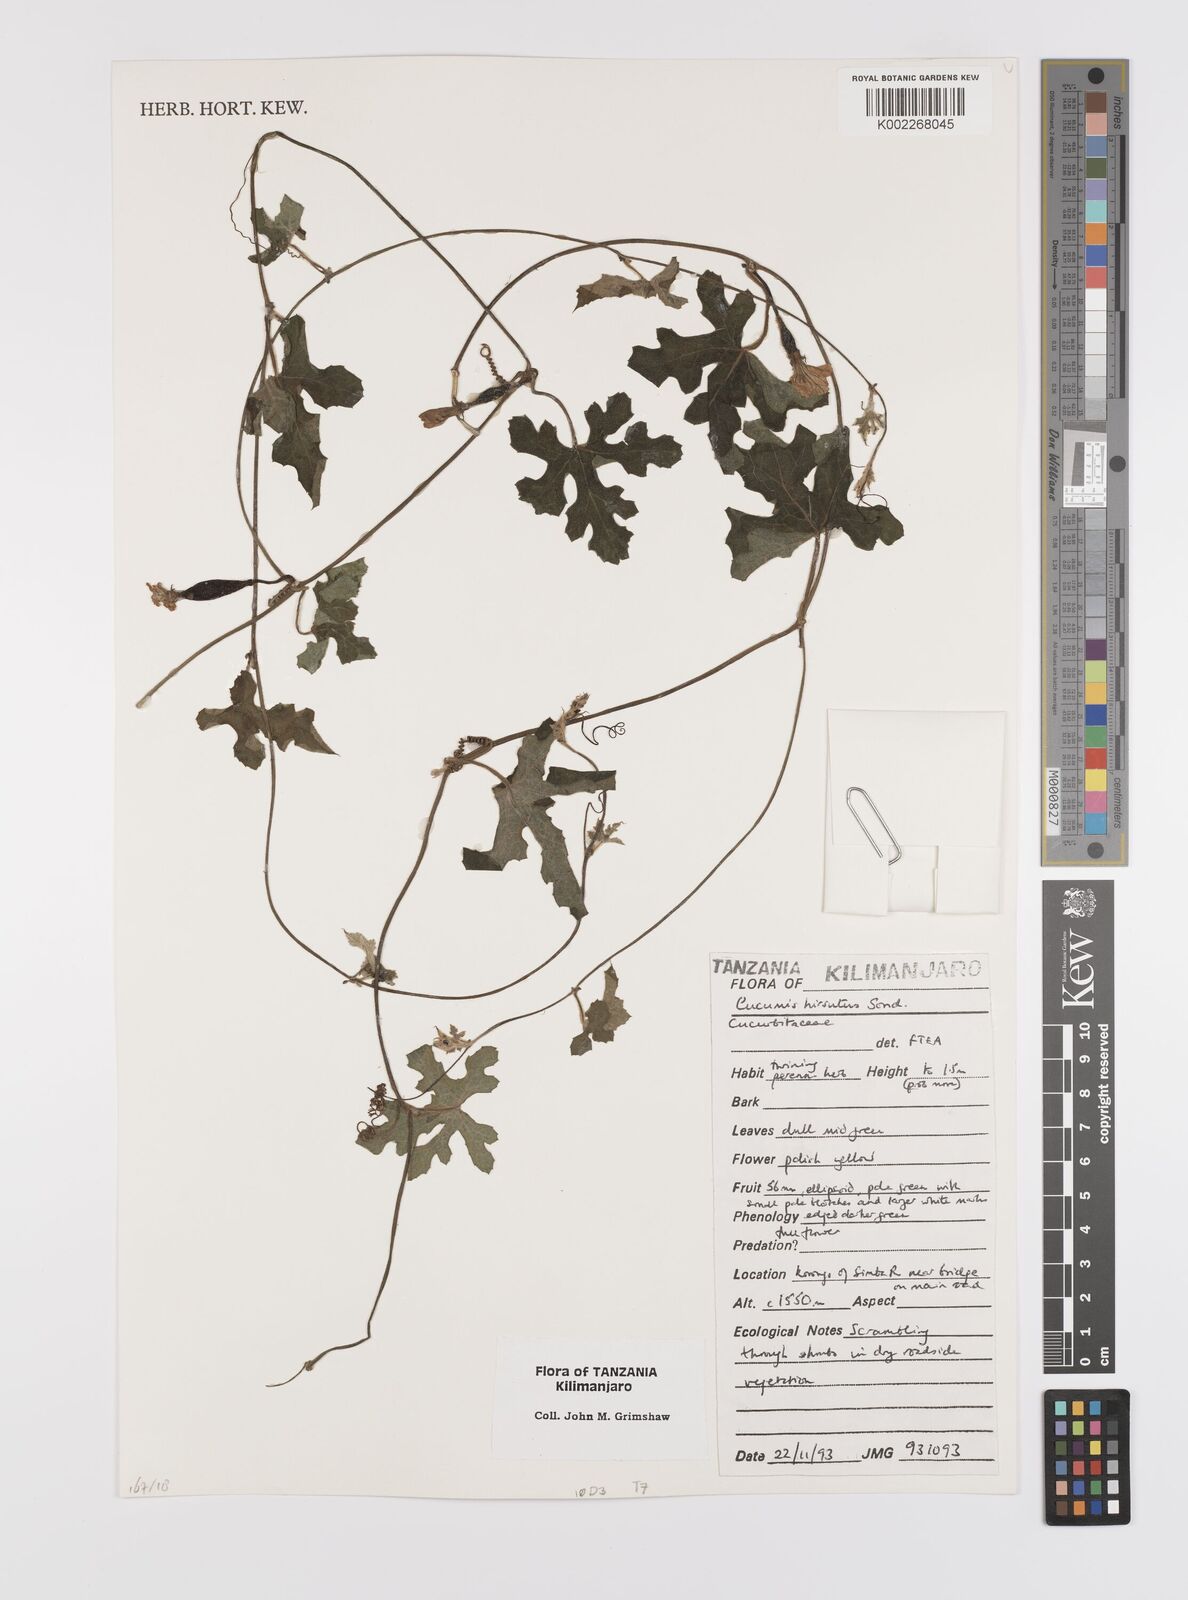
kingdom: Plantae
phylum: Tracheophyta
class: Magnoliopsida
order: Cucurbitales
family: Cucurbitaceae
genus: Cucumis
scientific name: Cucumis hirsutus
